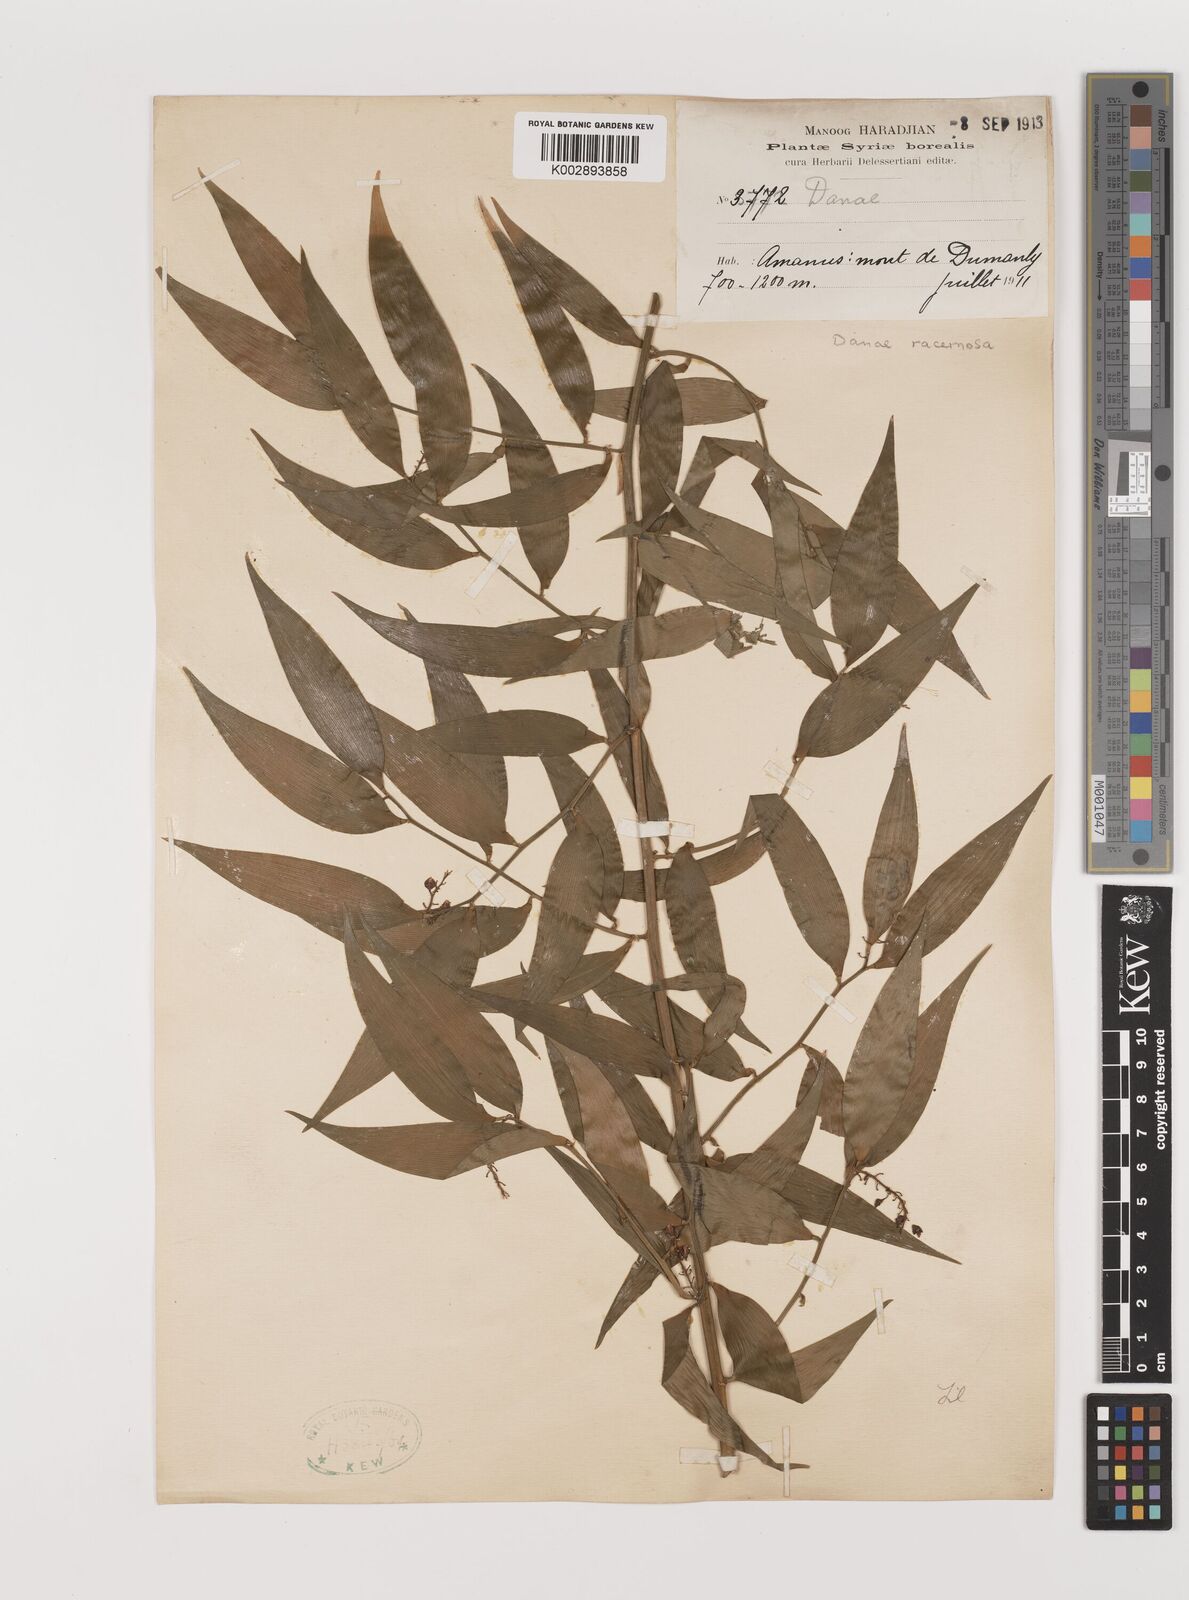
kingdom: Plantae
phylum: Tracheophyta
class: Liliopsida
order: Asparagales
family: Asparagaceae
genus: Danae
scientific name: Danae racemosa
